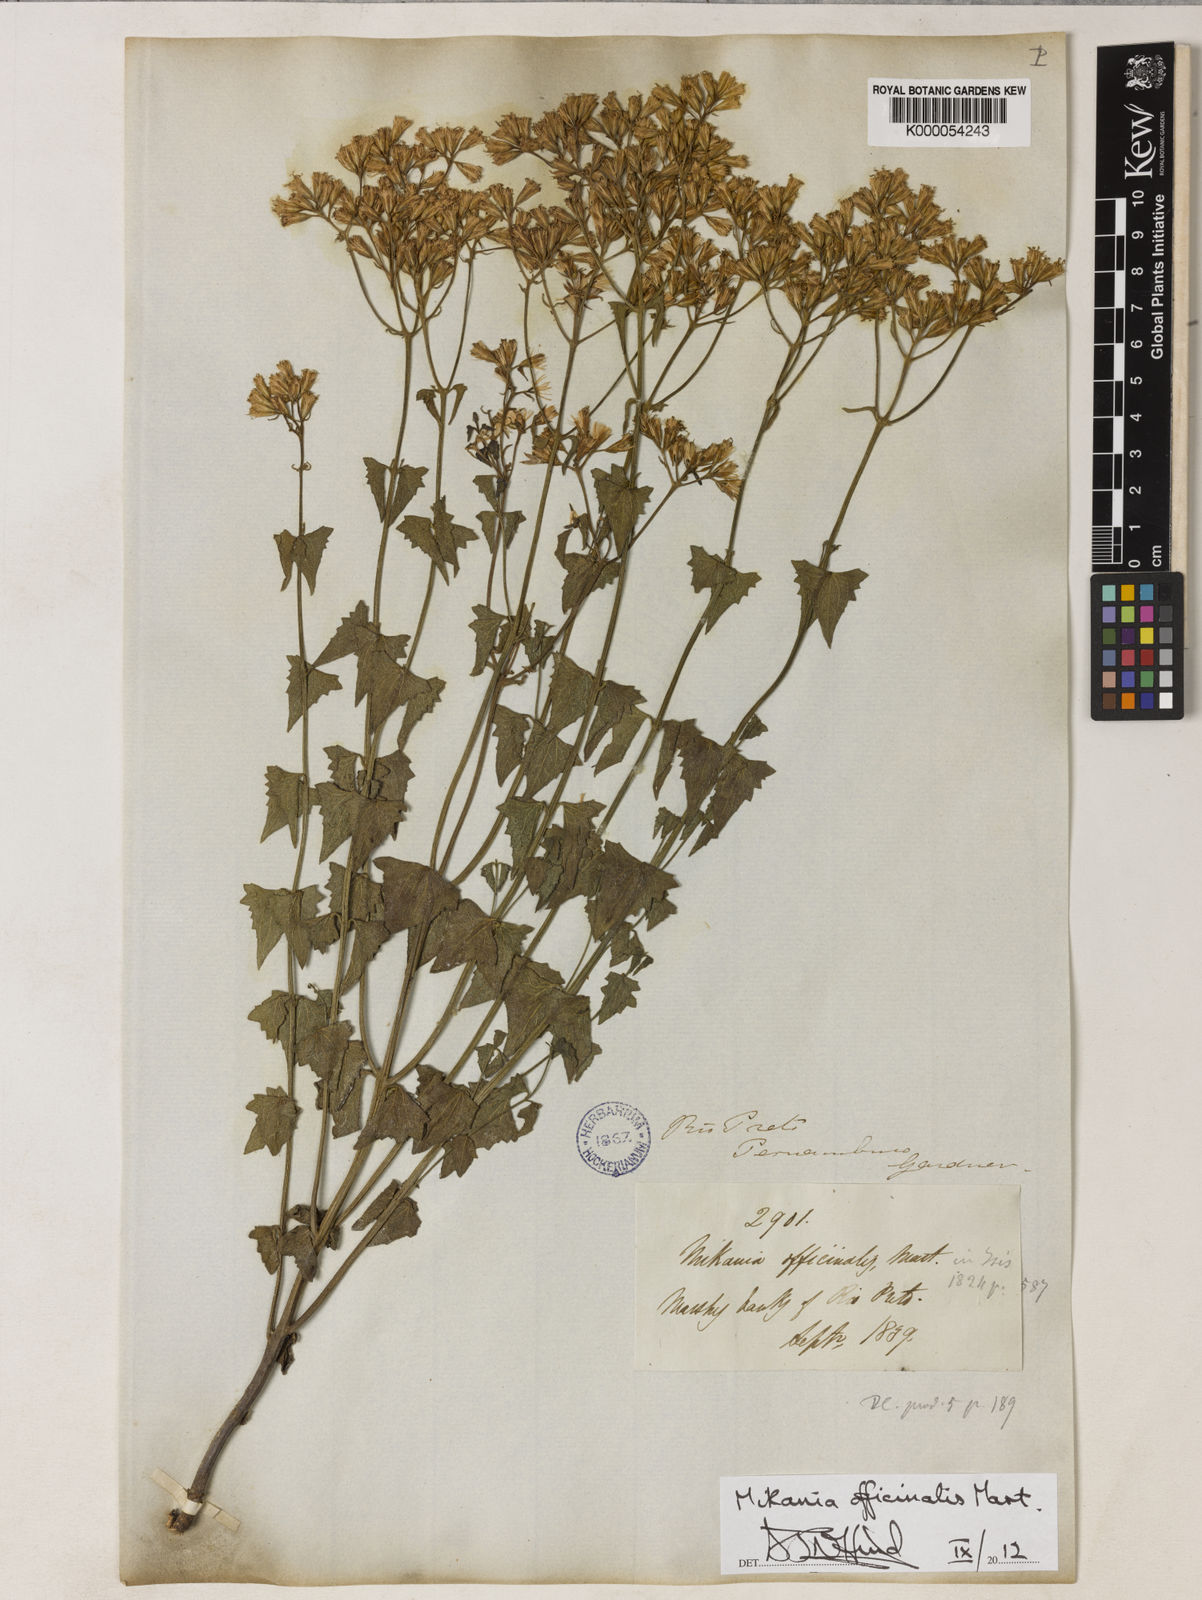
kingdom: Plantae
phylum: Tracheophyta
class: Magnoliopsida
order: Asterales
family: Asteraceae
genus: Mikania
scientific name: Mikania officinalis
